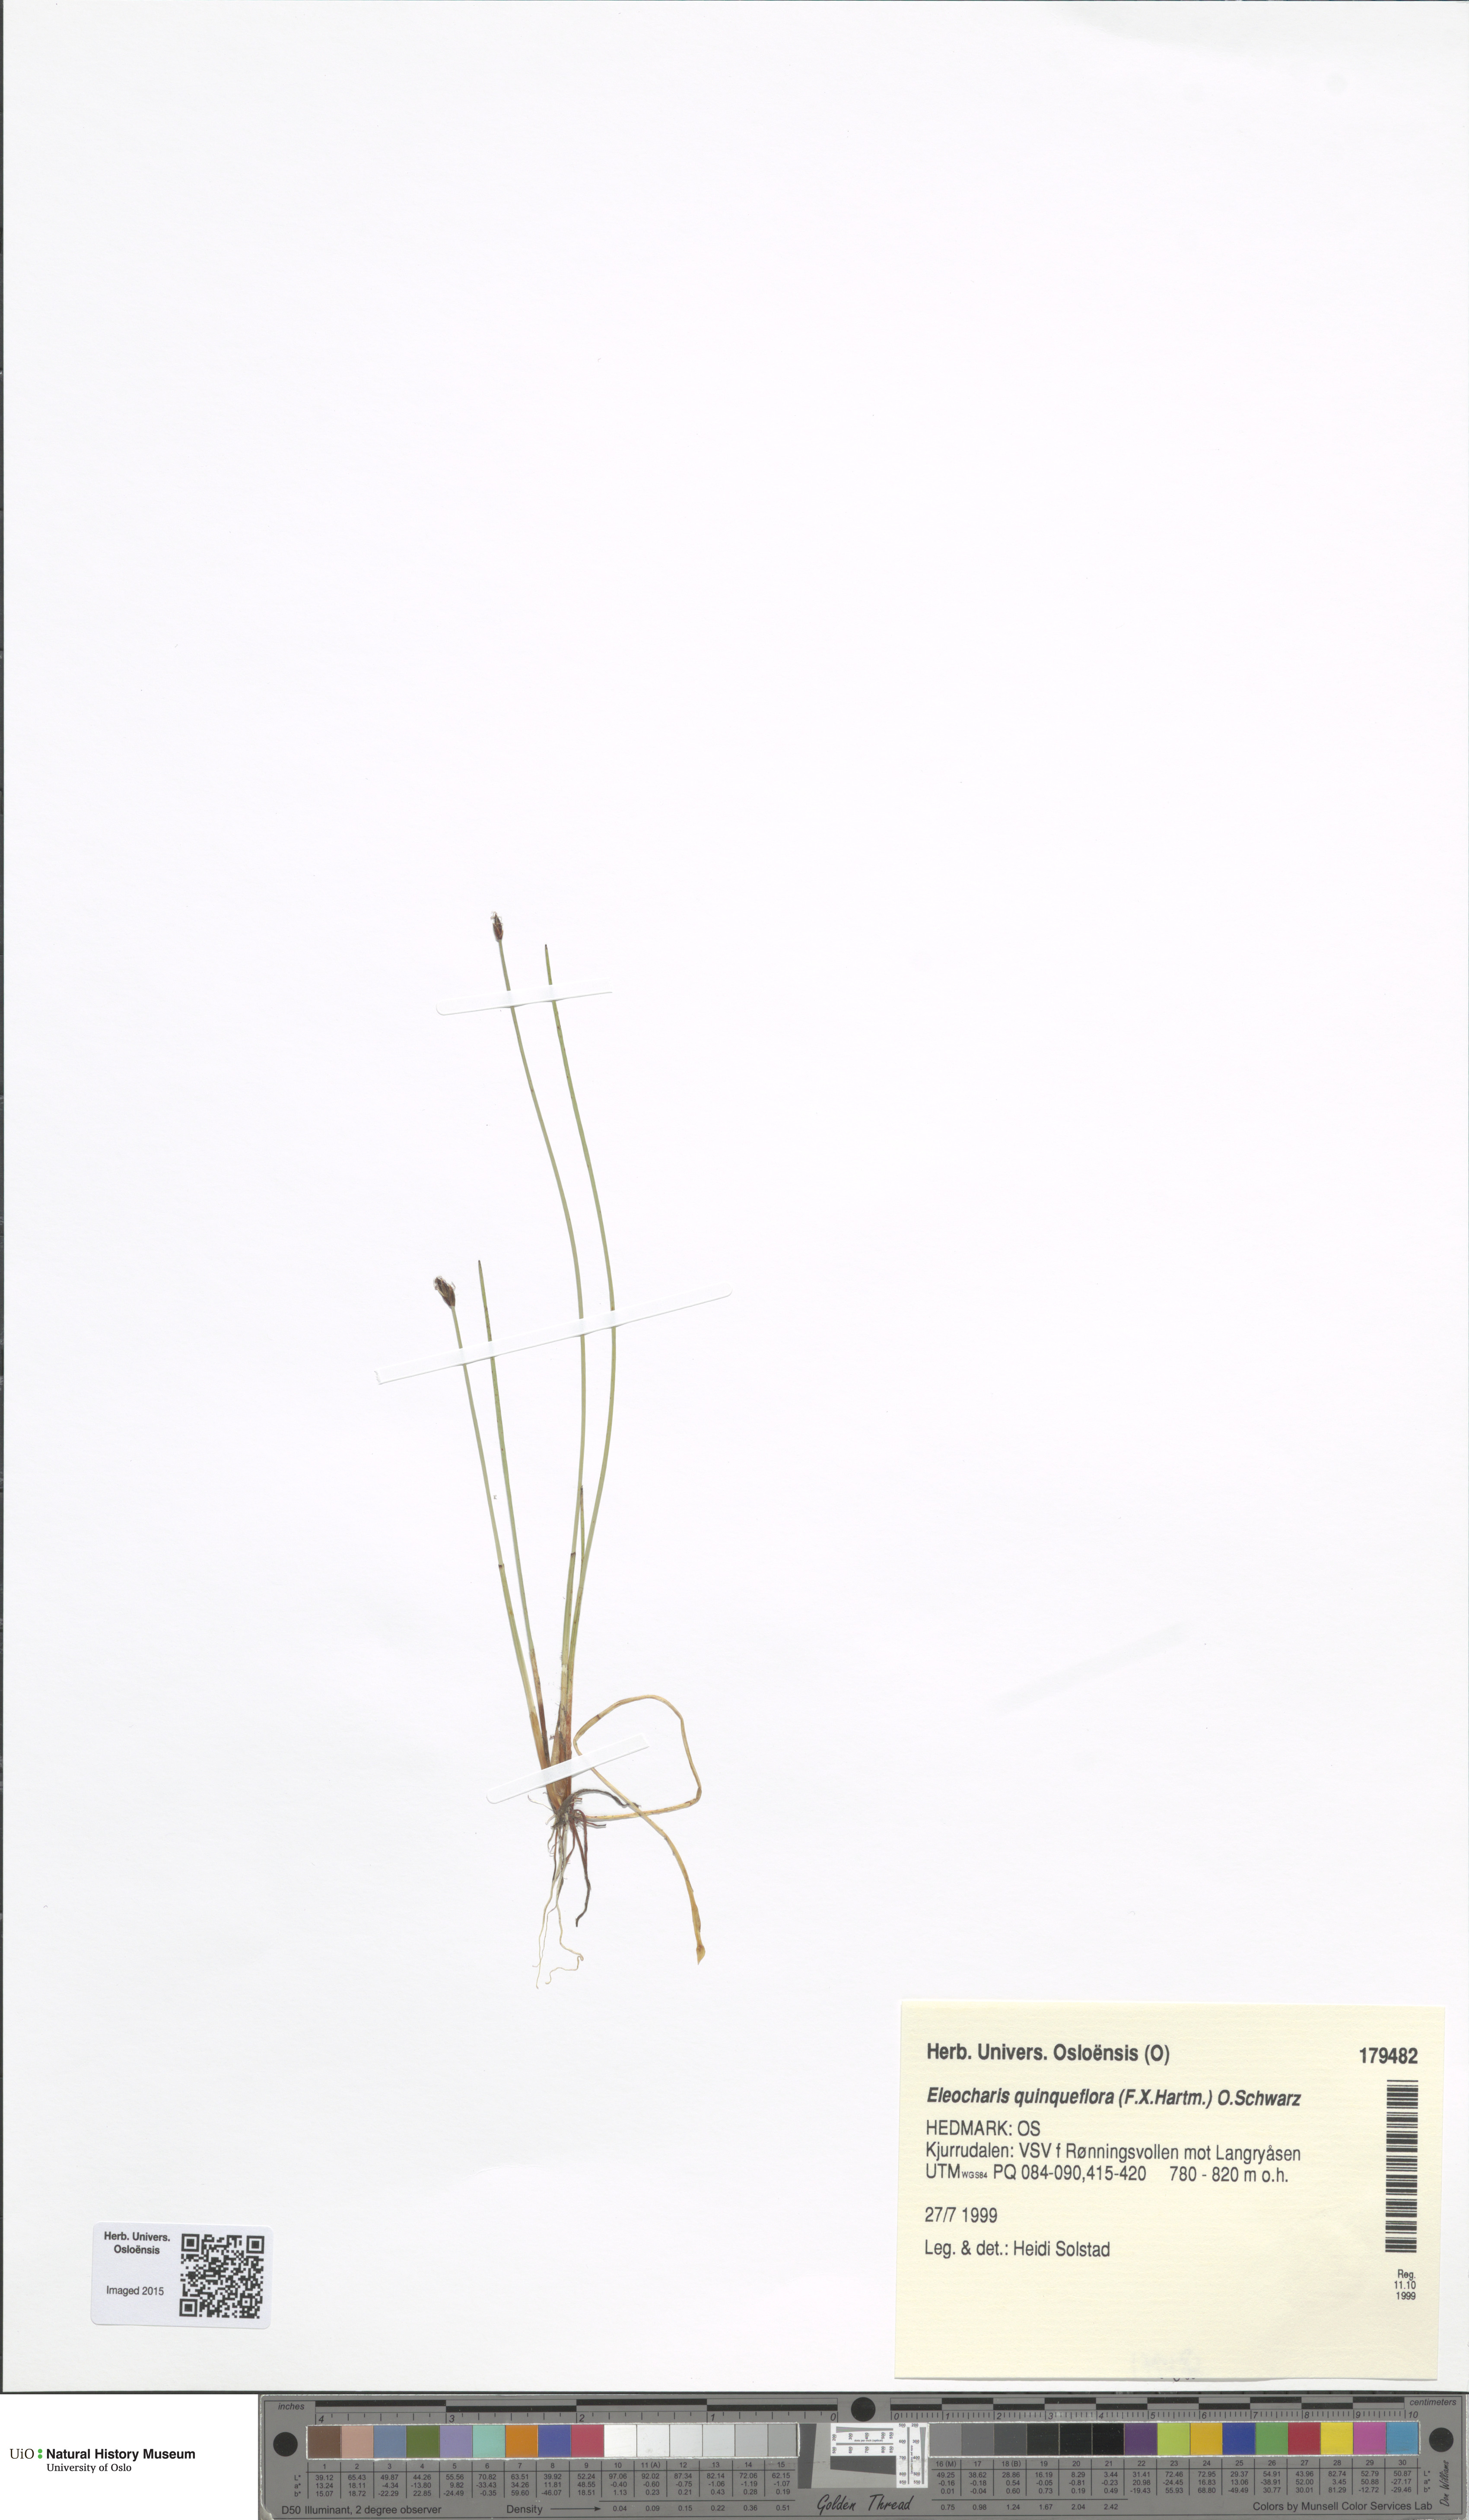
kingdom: Plantae
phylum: Tracheophyta
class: Liliopsida
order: Poales
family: Cyperaceae
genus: Eleocharis
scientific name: Eleocharis quinqueflora
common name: Few-flowered spike-rush
